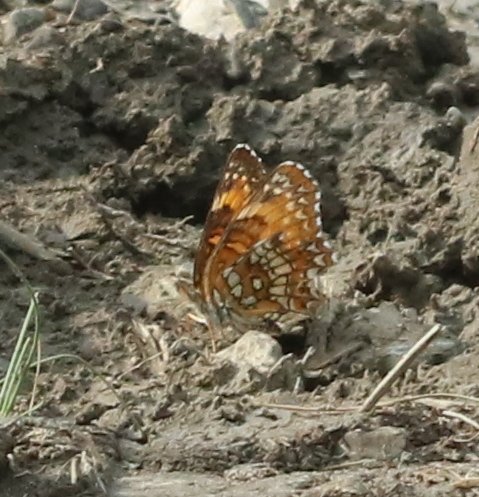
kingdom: Animalia
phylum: Arthropoda
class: Insecta
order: Lepidoptera
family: Nymphalidae
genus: Chlosyne
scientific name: Chlosyne harrisii
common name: Harris's Checkerspot
